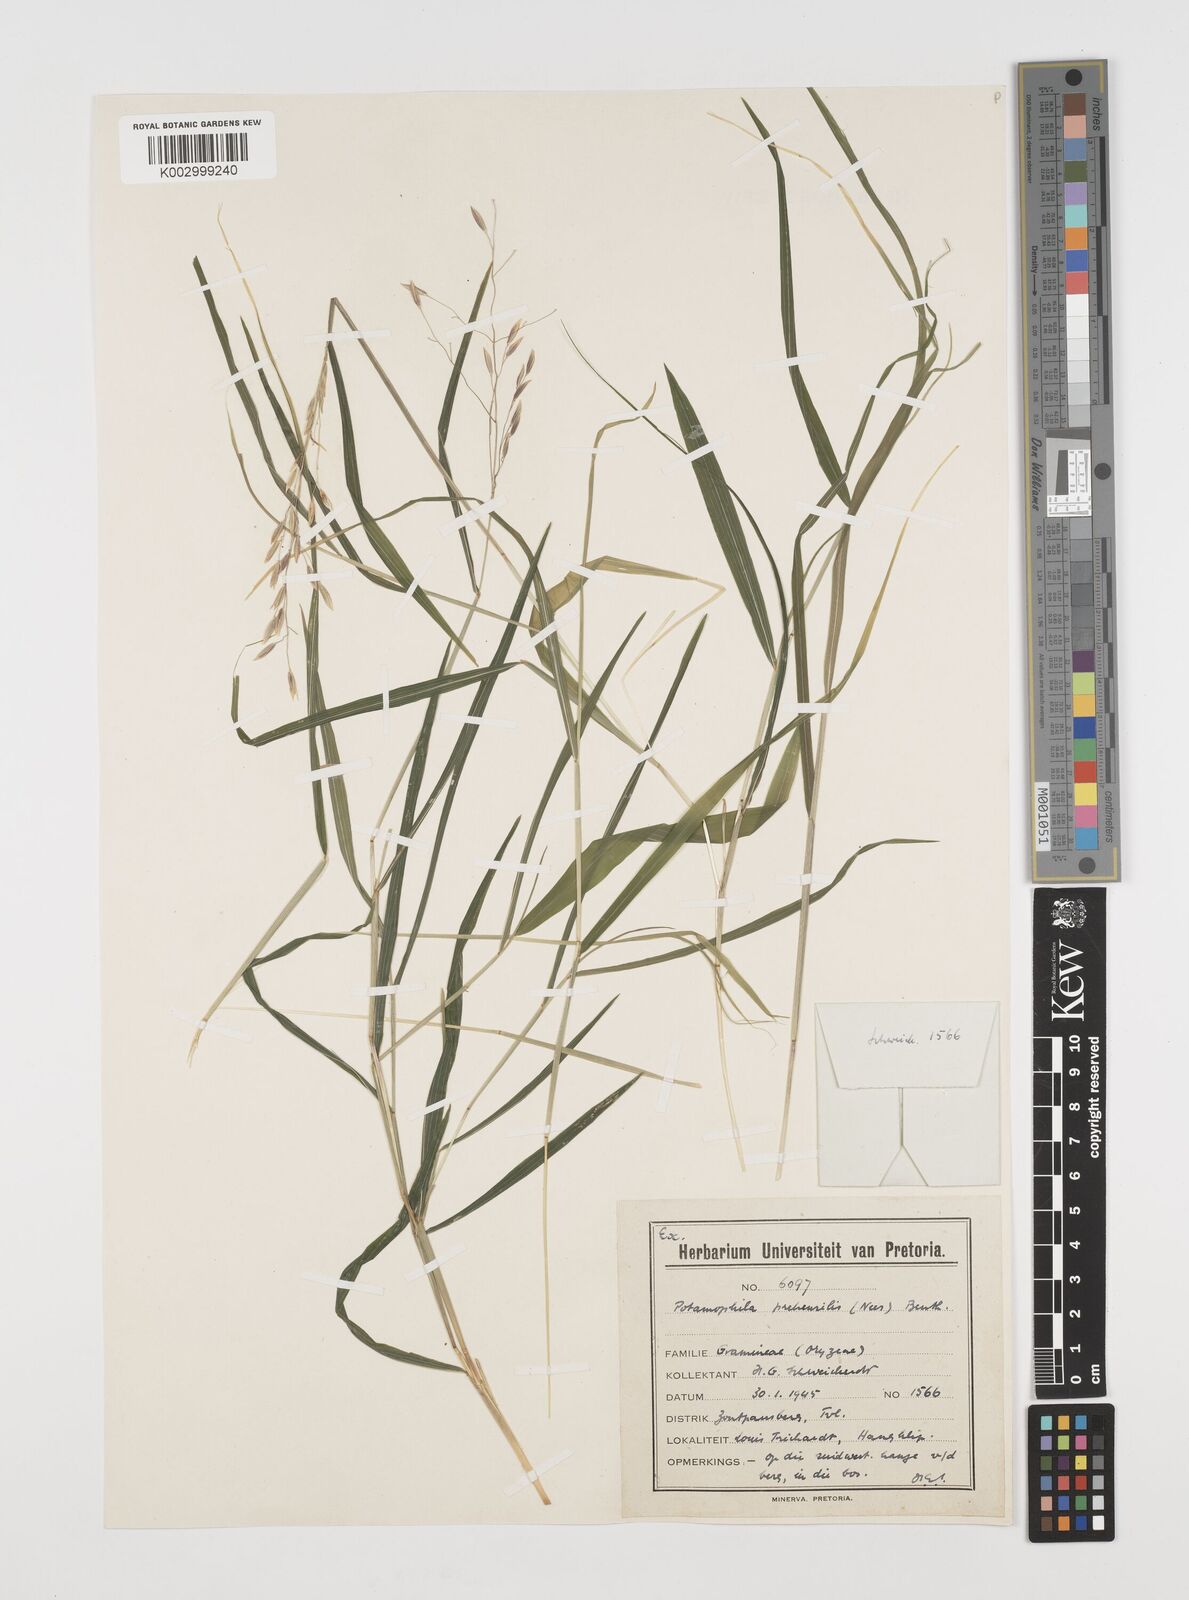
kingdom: Plantae
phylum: Tracheophyta
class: Liliopsida
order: Poales
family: Poaceae
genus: Prosphytochloa
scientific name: Prosphytochloa prehensilis
